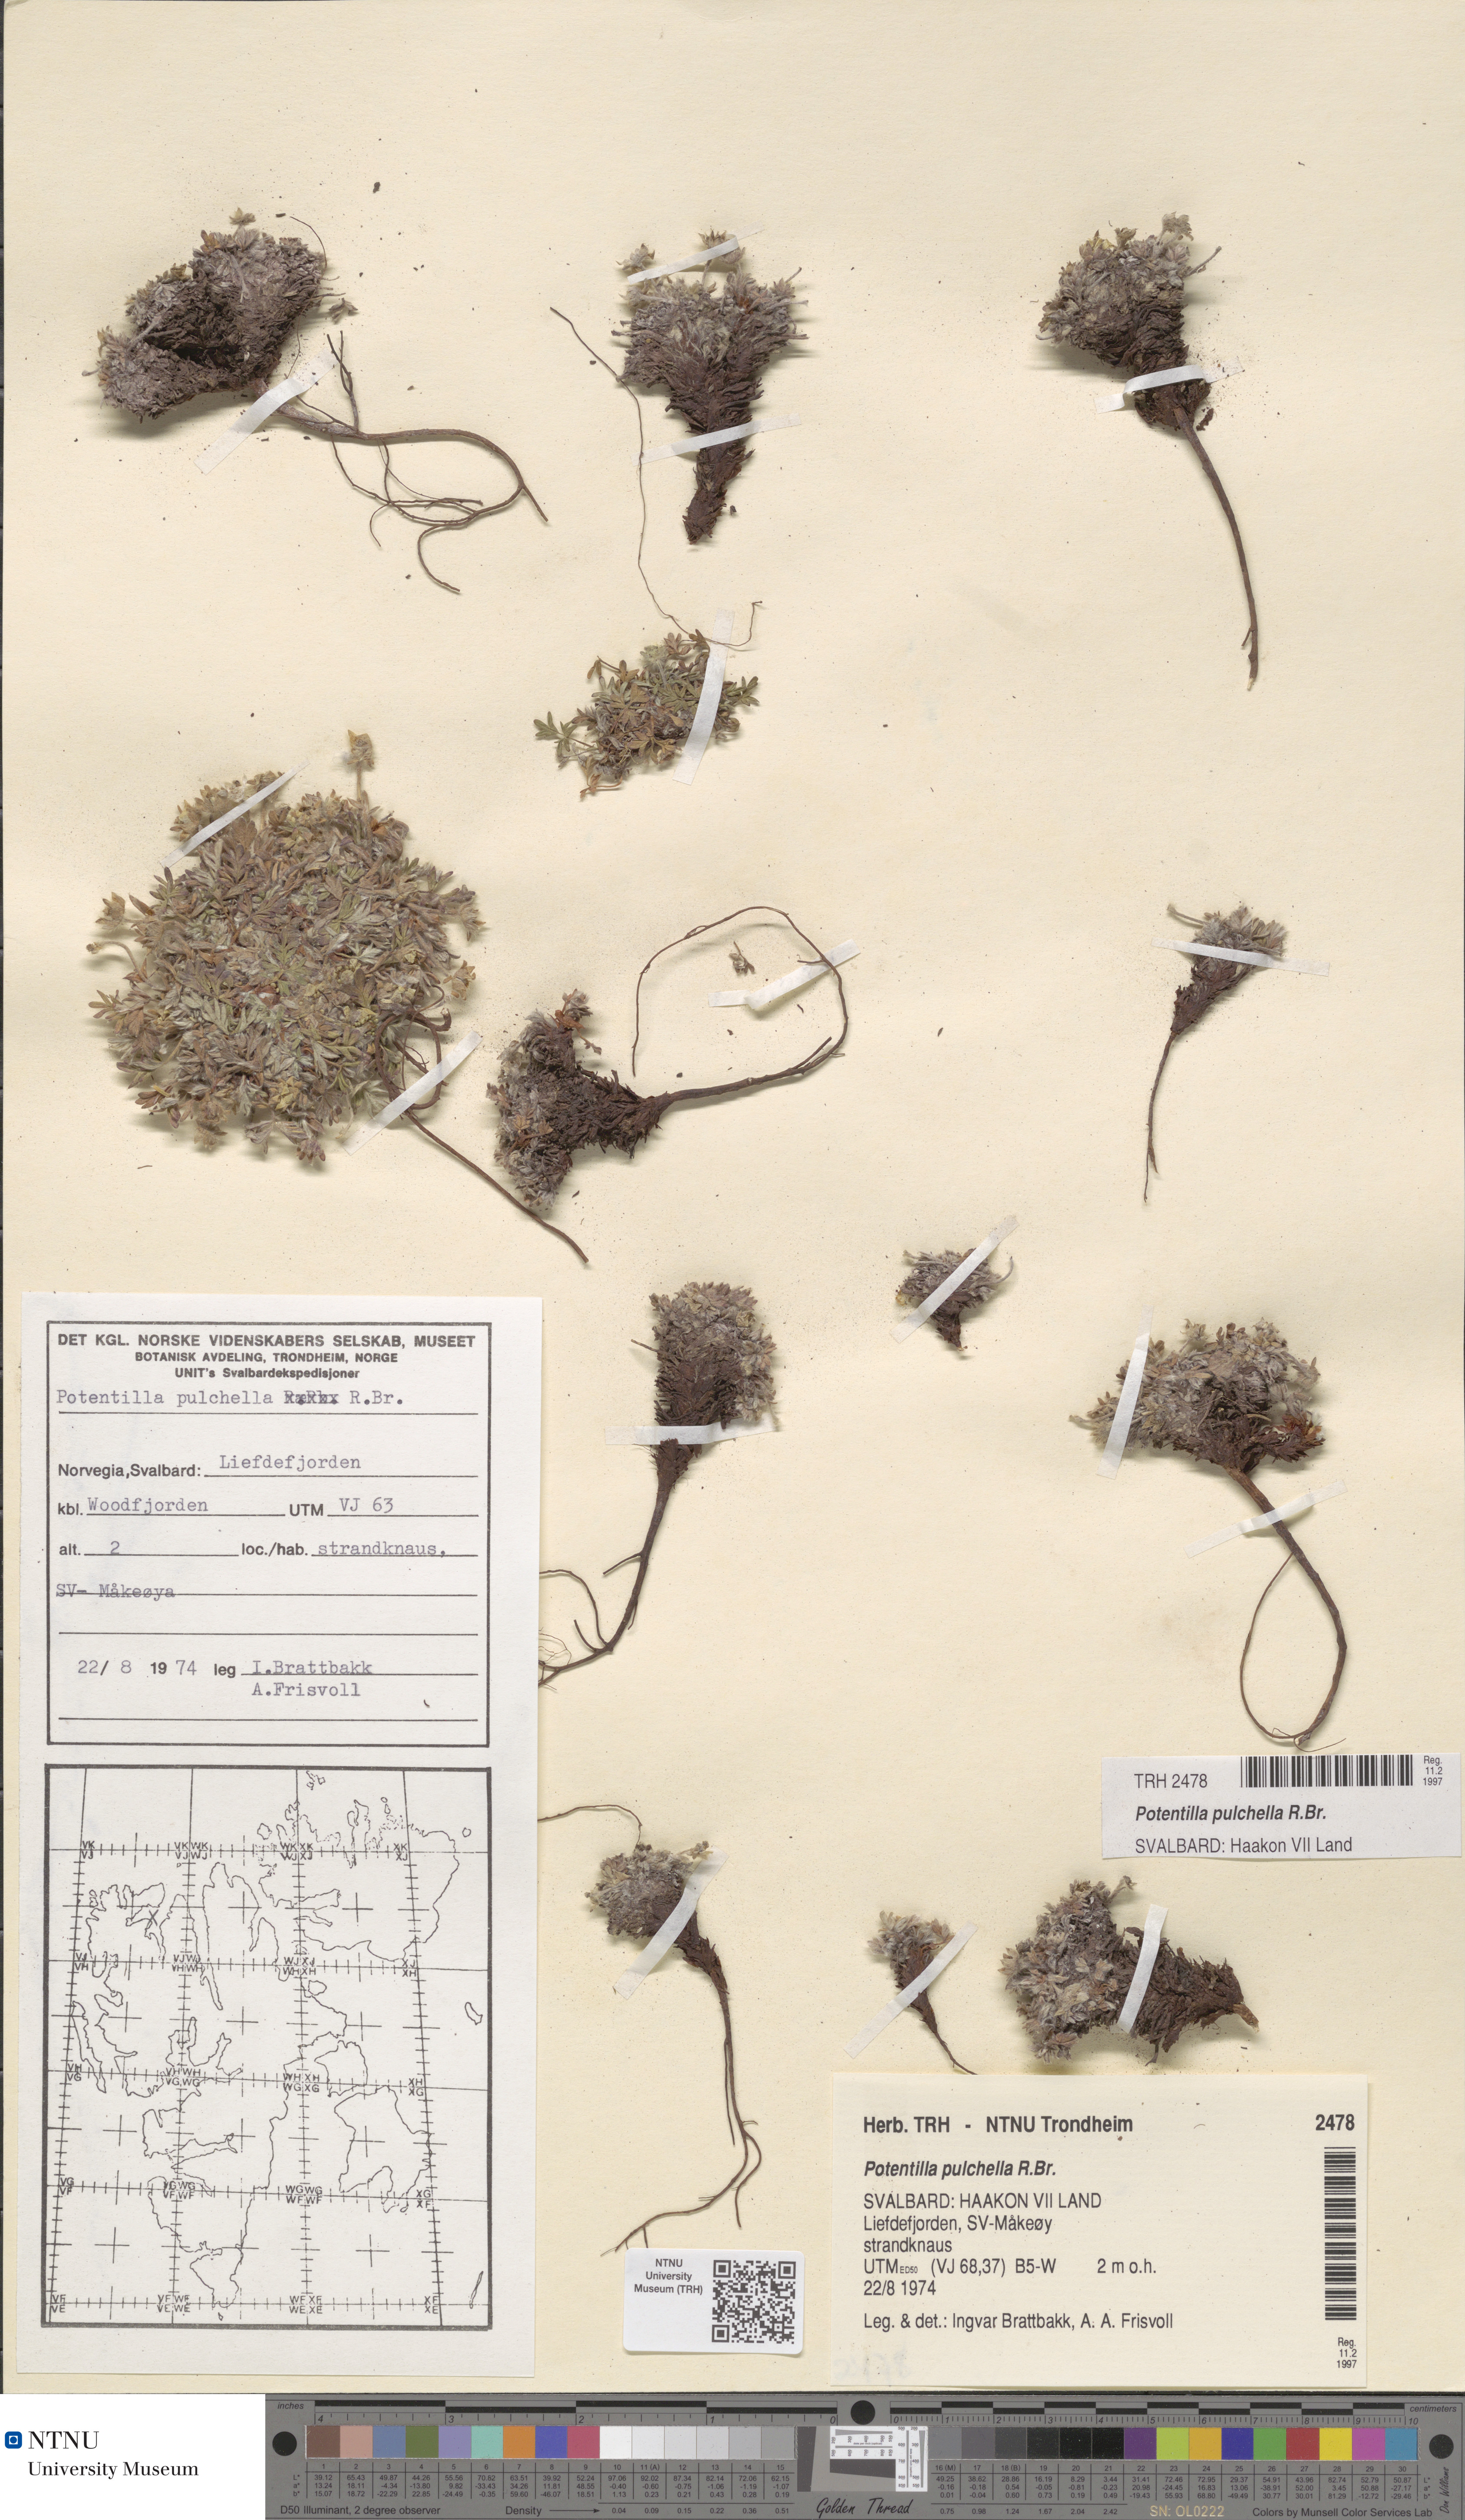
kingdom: Plantae
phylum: Tracheophyta
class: Magnoliopsida
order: Rosales
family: Rosaceae
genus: Potentilla
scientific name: Potentilla pulchella
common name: Pretty cinquefoil
